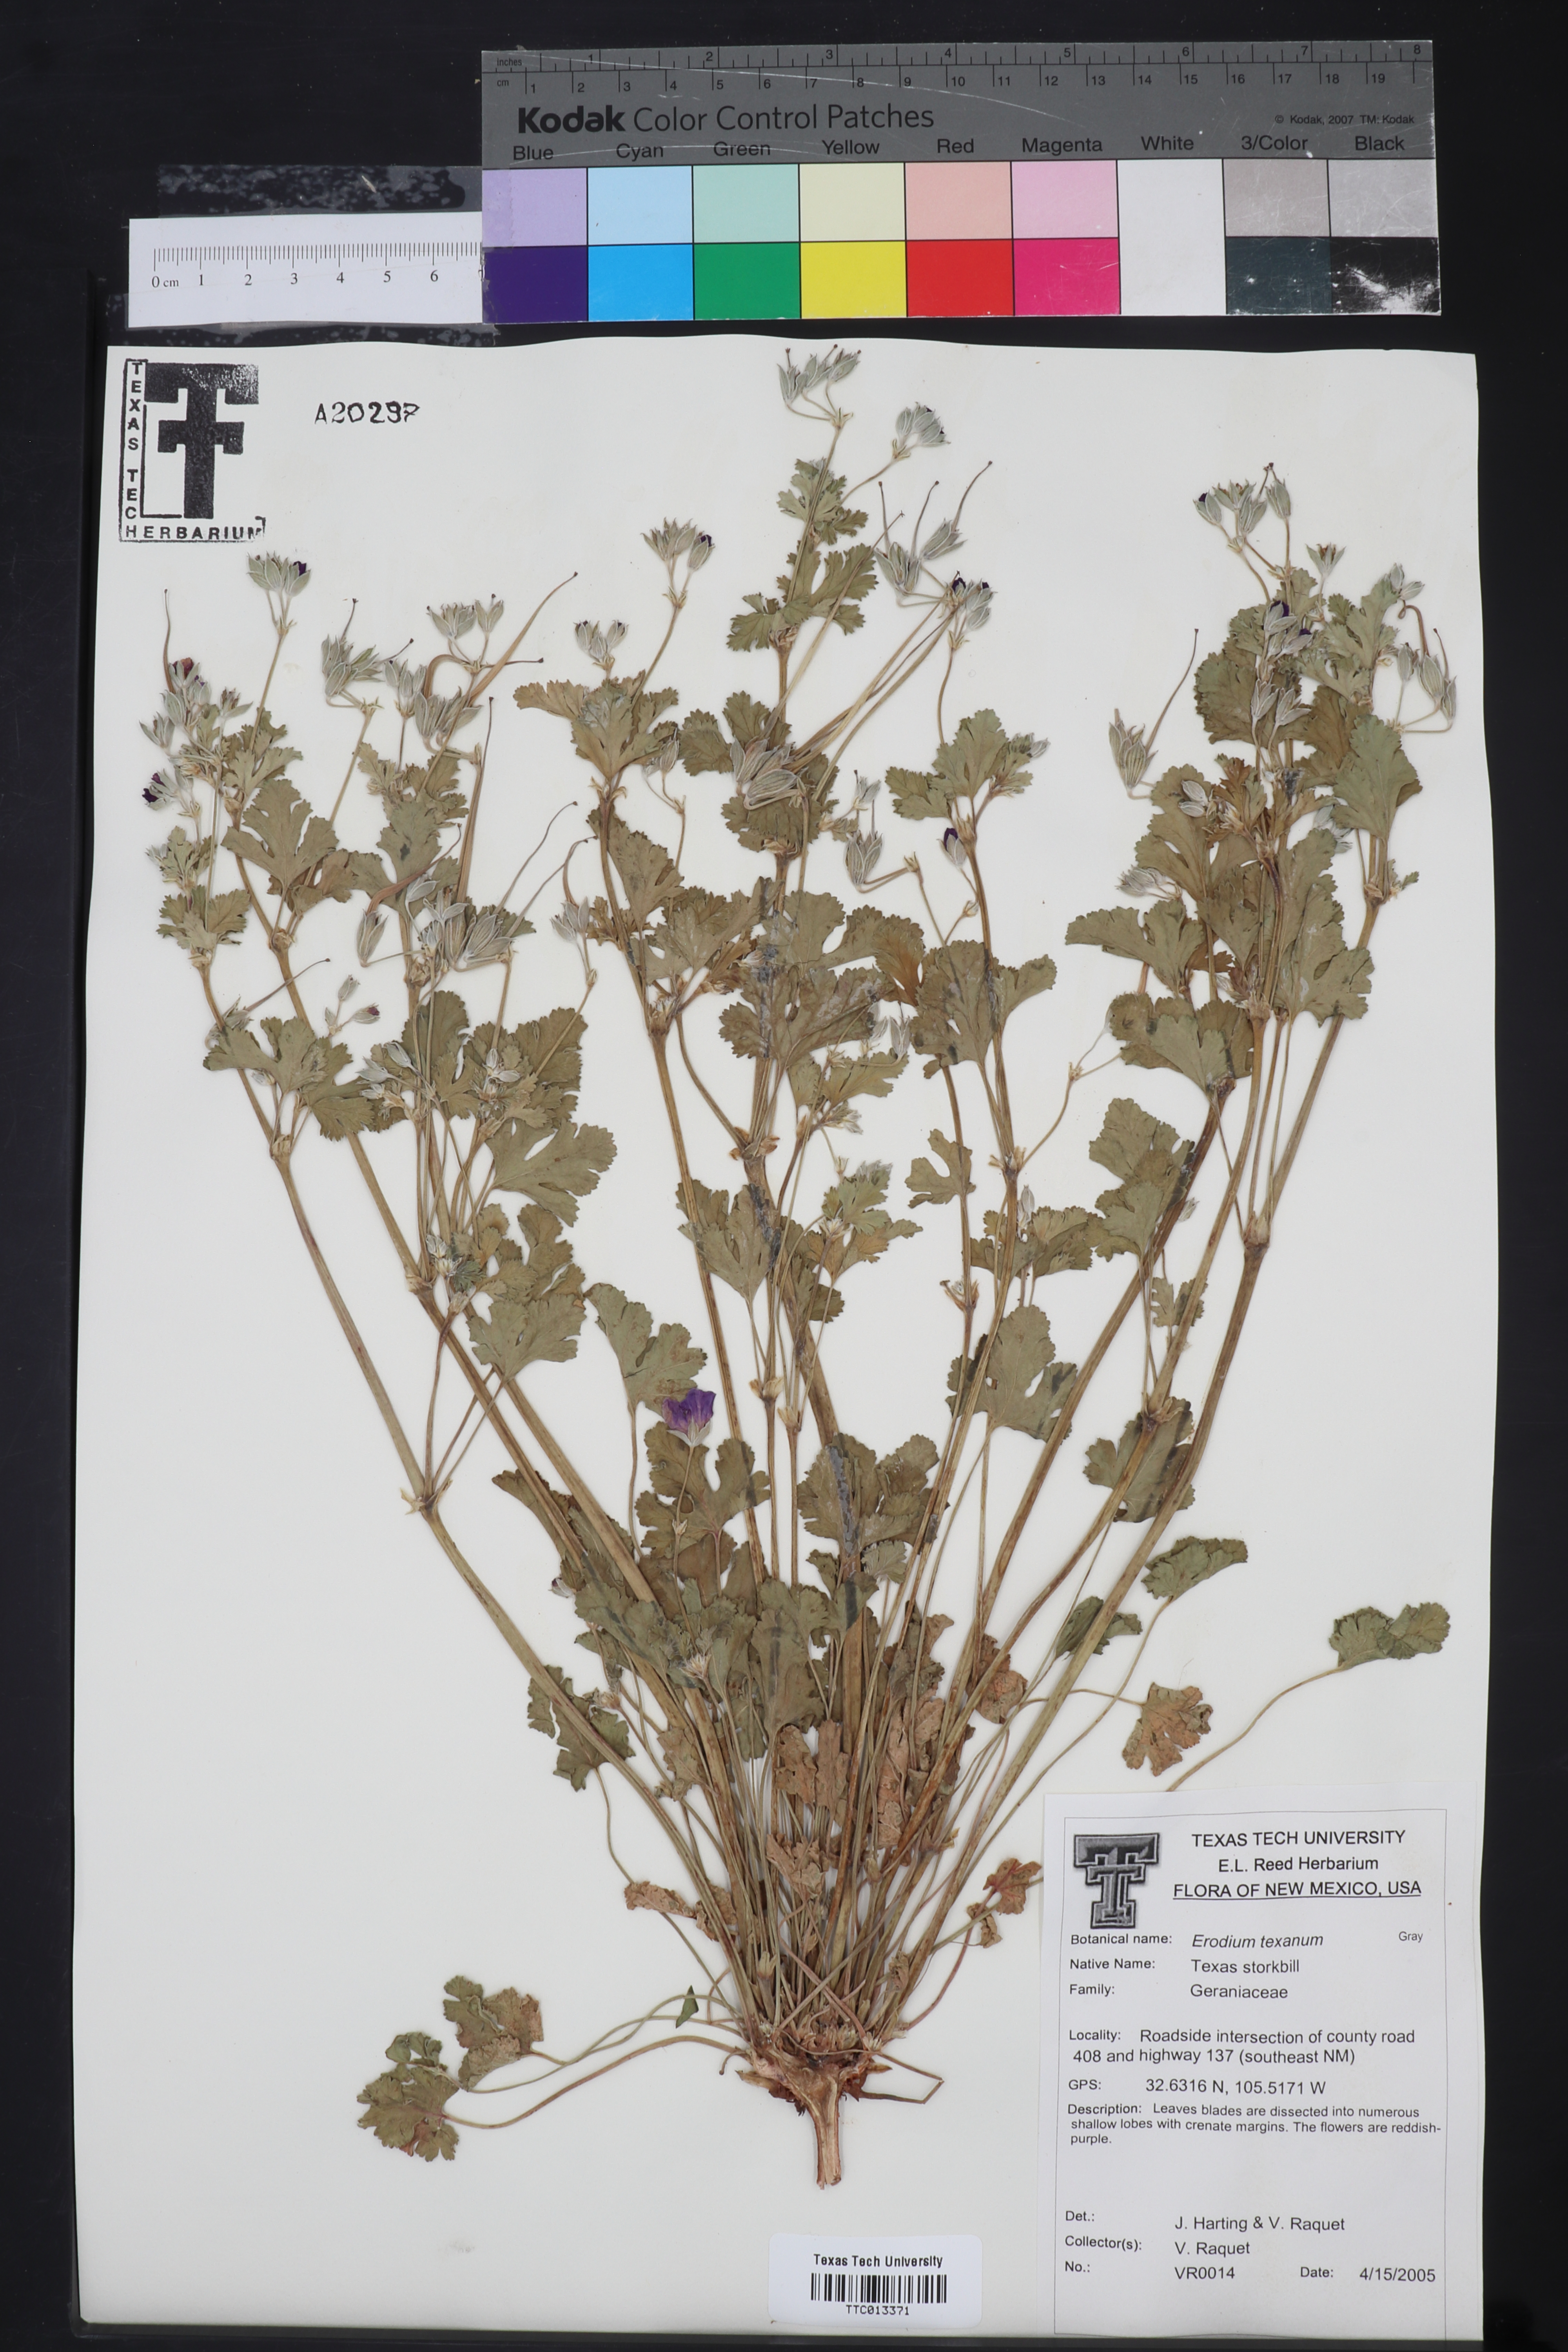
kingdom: Plantae
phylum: Tracheophyta
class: Magnoliopsida
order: Geraniales
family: Geraniaceae
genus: Erodium
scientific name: Erodium texanum
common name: Texas stork's-bill
